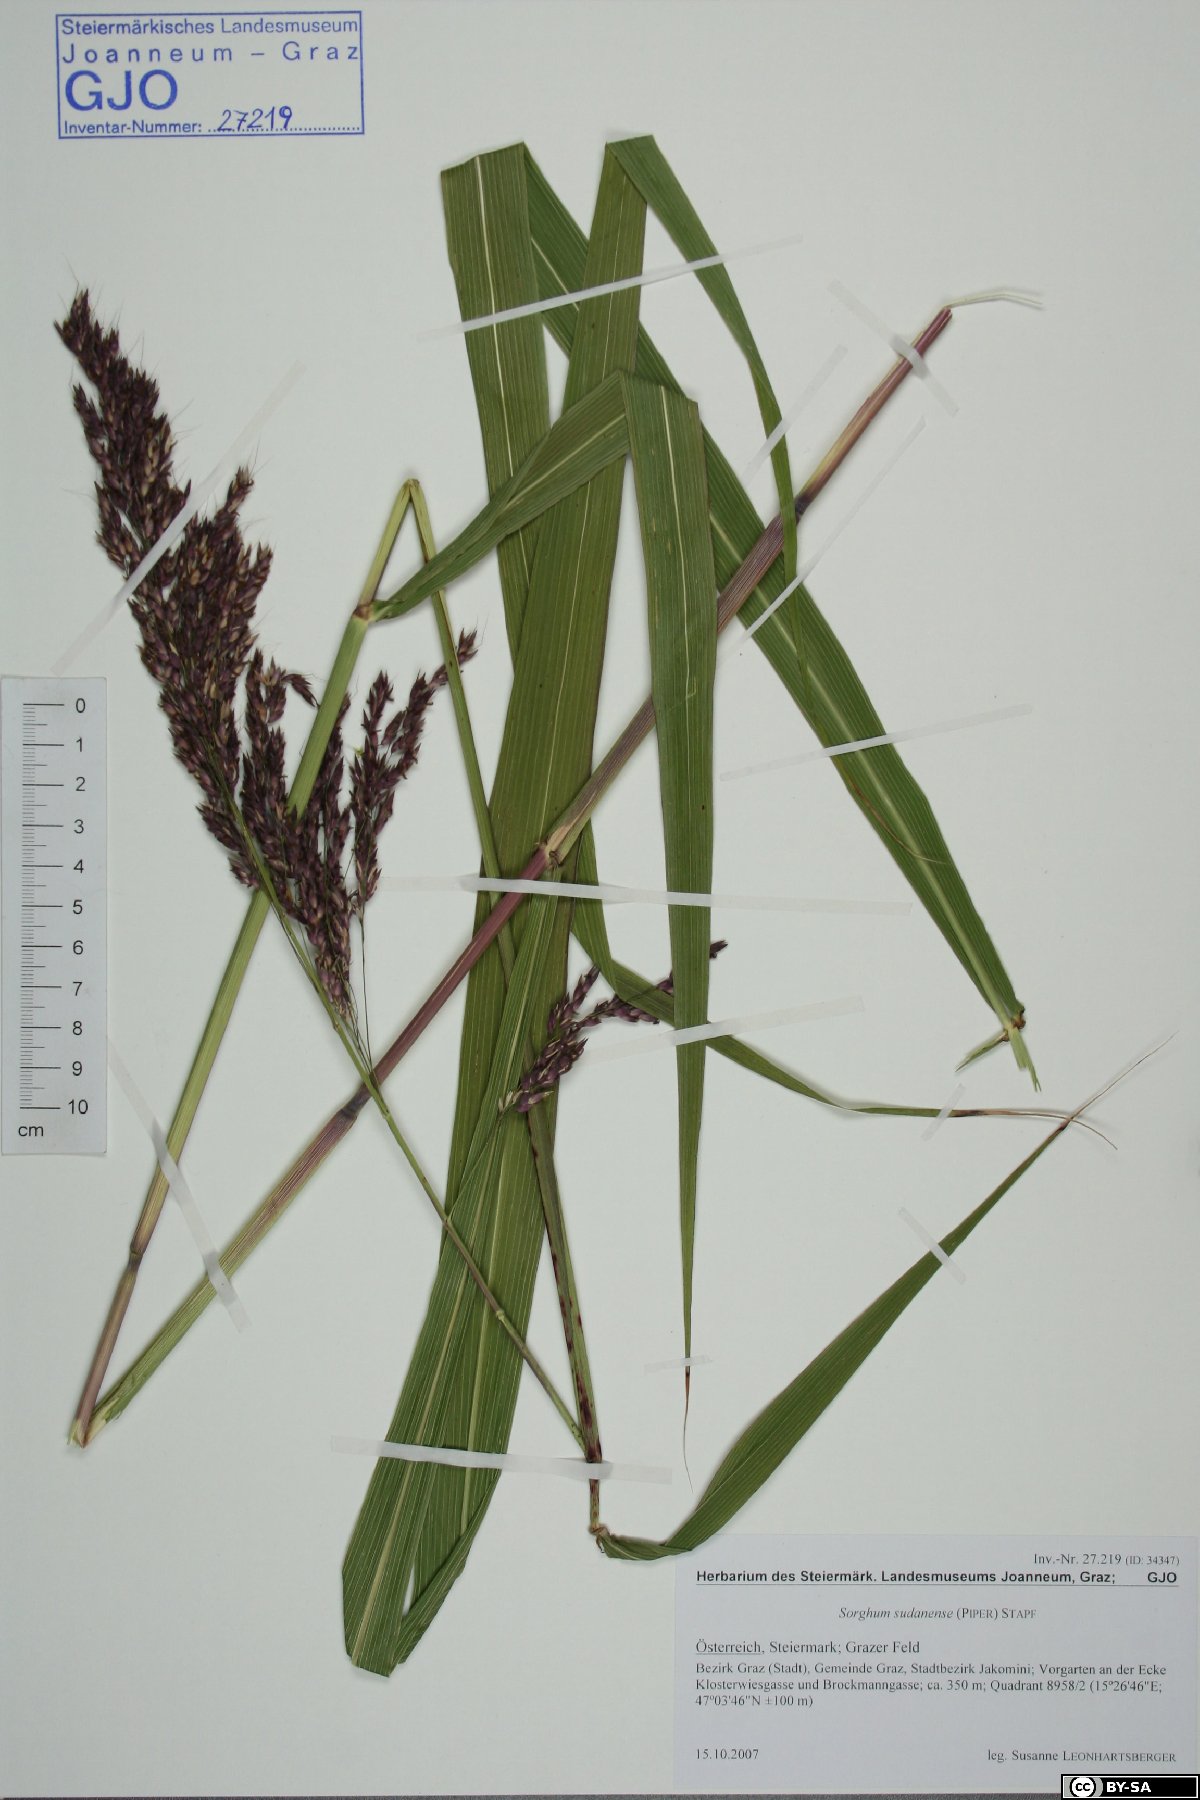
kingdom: Plantae
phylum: Tracheophyta
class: Liliopsida
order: Poales
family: Poaceae
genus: Sorghum
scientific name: Sorghum halepense
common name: Johnson-grass
